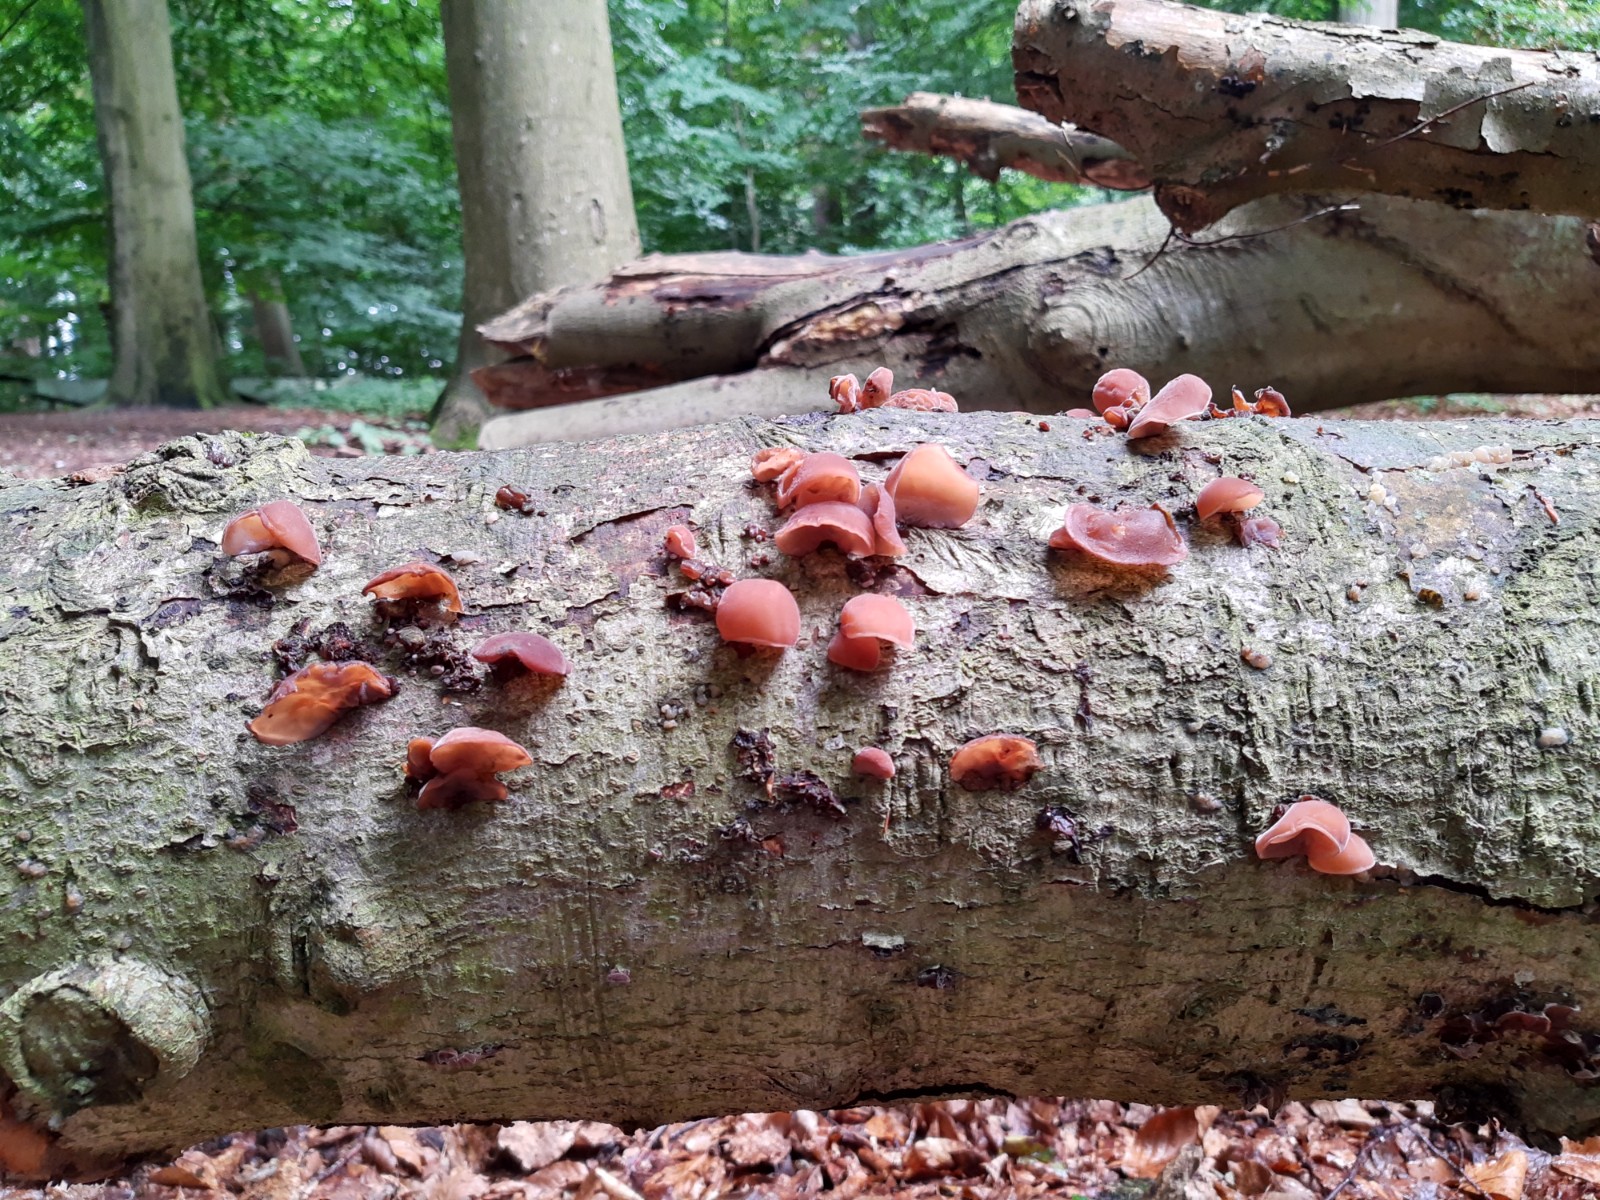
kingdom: Fungi
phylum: Basidiomycota
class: Agaricomycetes
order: Auriculariales
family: Auriculariaceae
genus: Auricularia
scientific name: Auricularia auricula-judae
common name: almindelig judasøre
